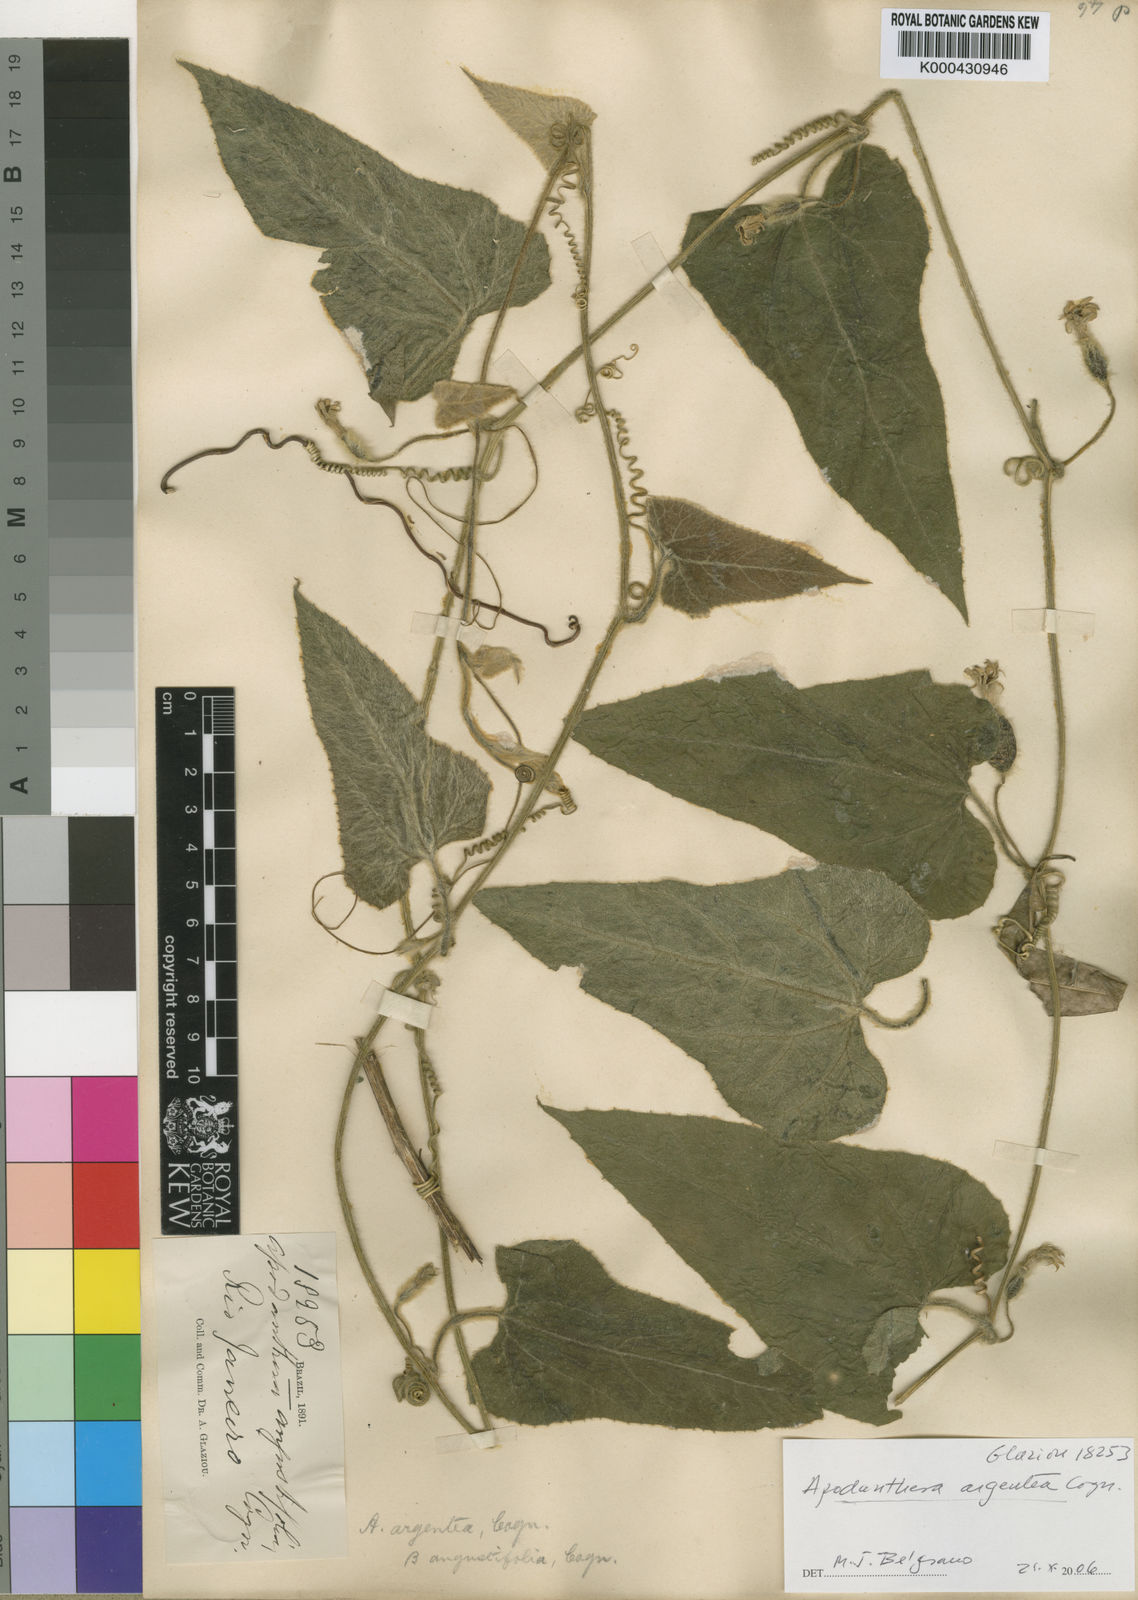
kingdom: Plantae
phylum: Tracheophyta
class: Magnoliopsida
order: Cucurbitales
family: Cucurbitaceae
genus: Apodanthera
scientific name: Apodanthera argentea
